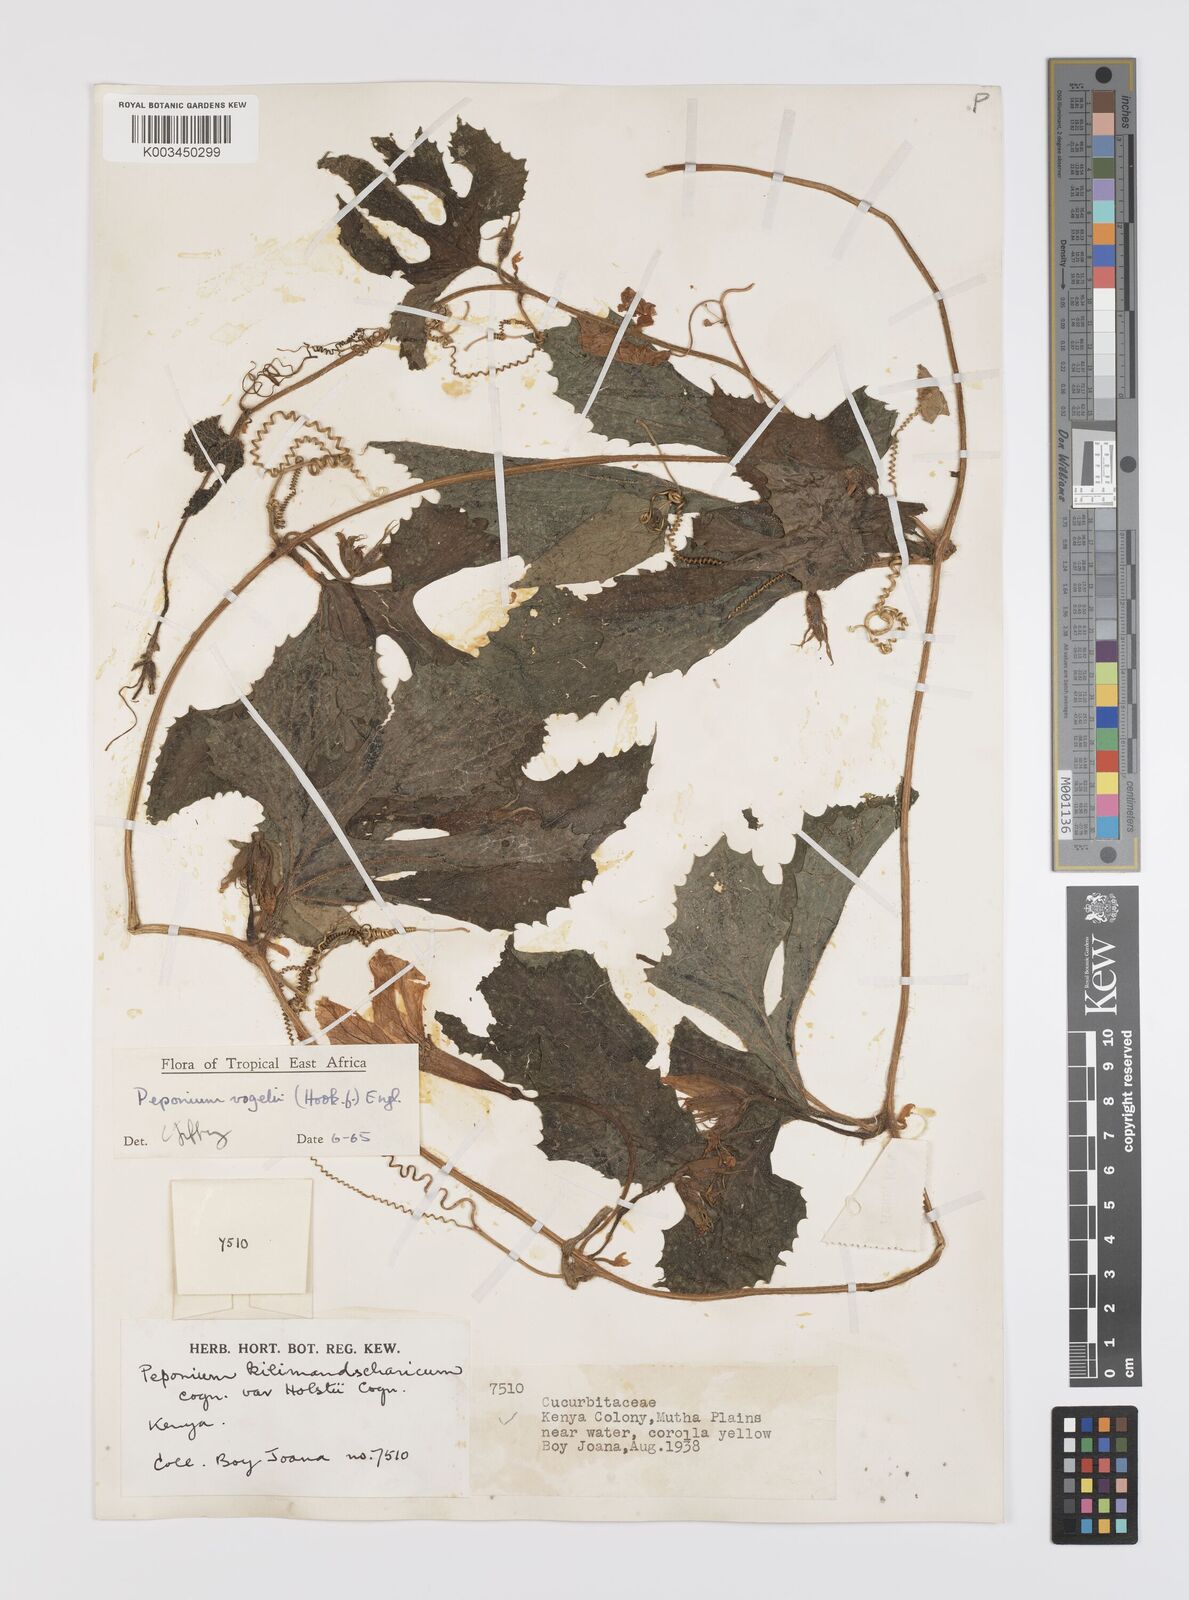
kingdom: Plantae
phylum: Tracheophyta
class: Magnoliopsida
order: Cucurbitales
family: Cucurbitaceae
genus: Peponium
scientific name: Peponium vogelii
